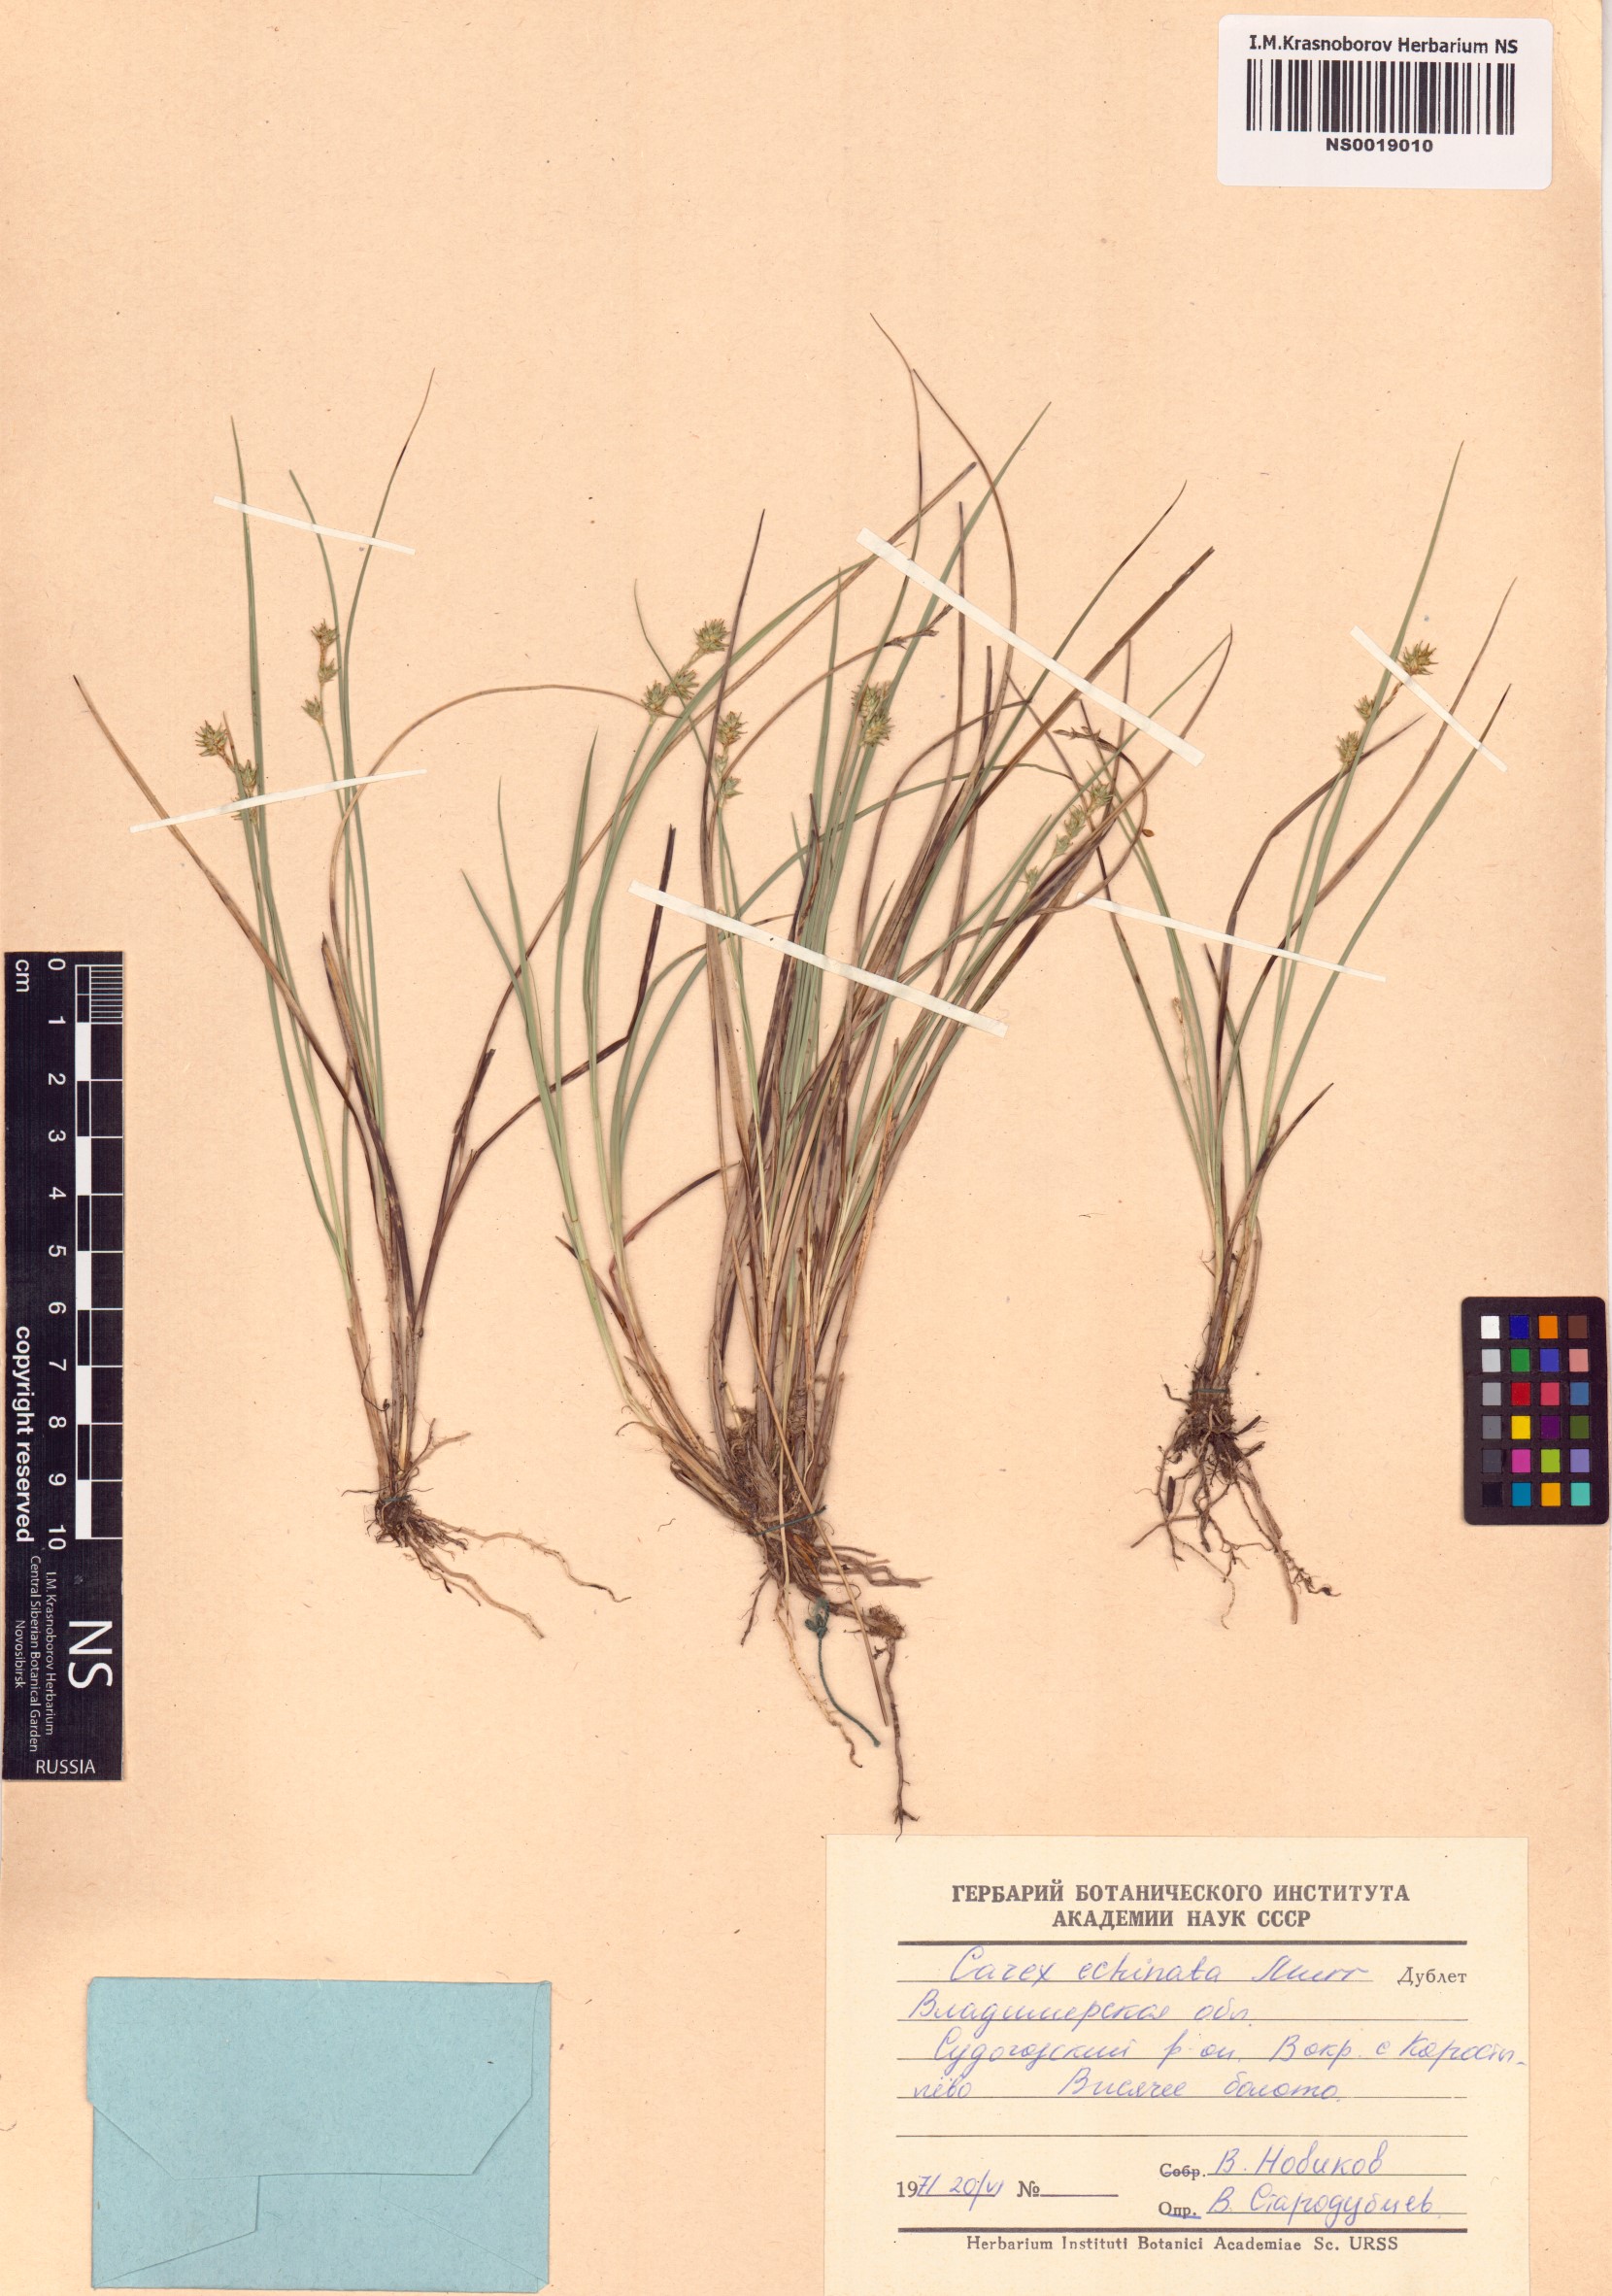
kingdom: Plantae
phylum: Tracheophyta
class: Liliopsida
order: Poales
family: Cyperaceae
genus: Carex
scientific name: Carex echinata
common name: Star sedge
